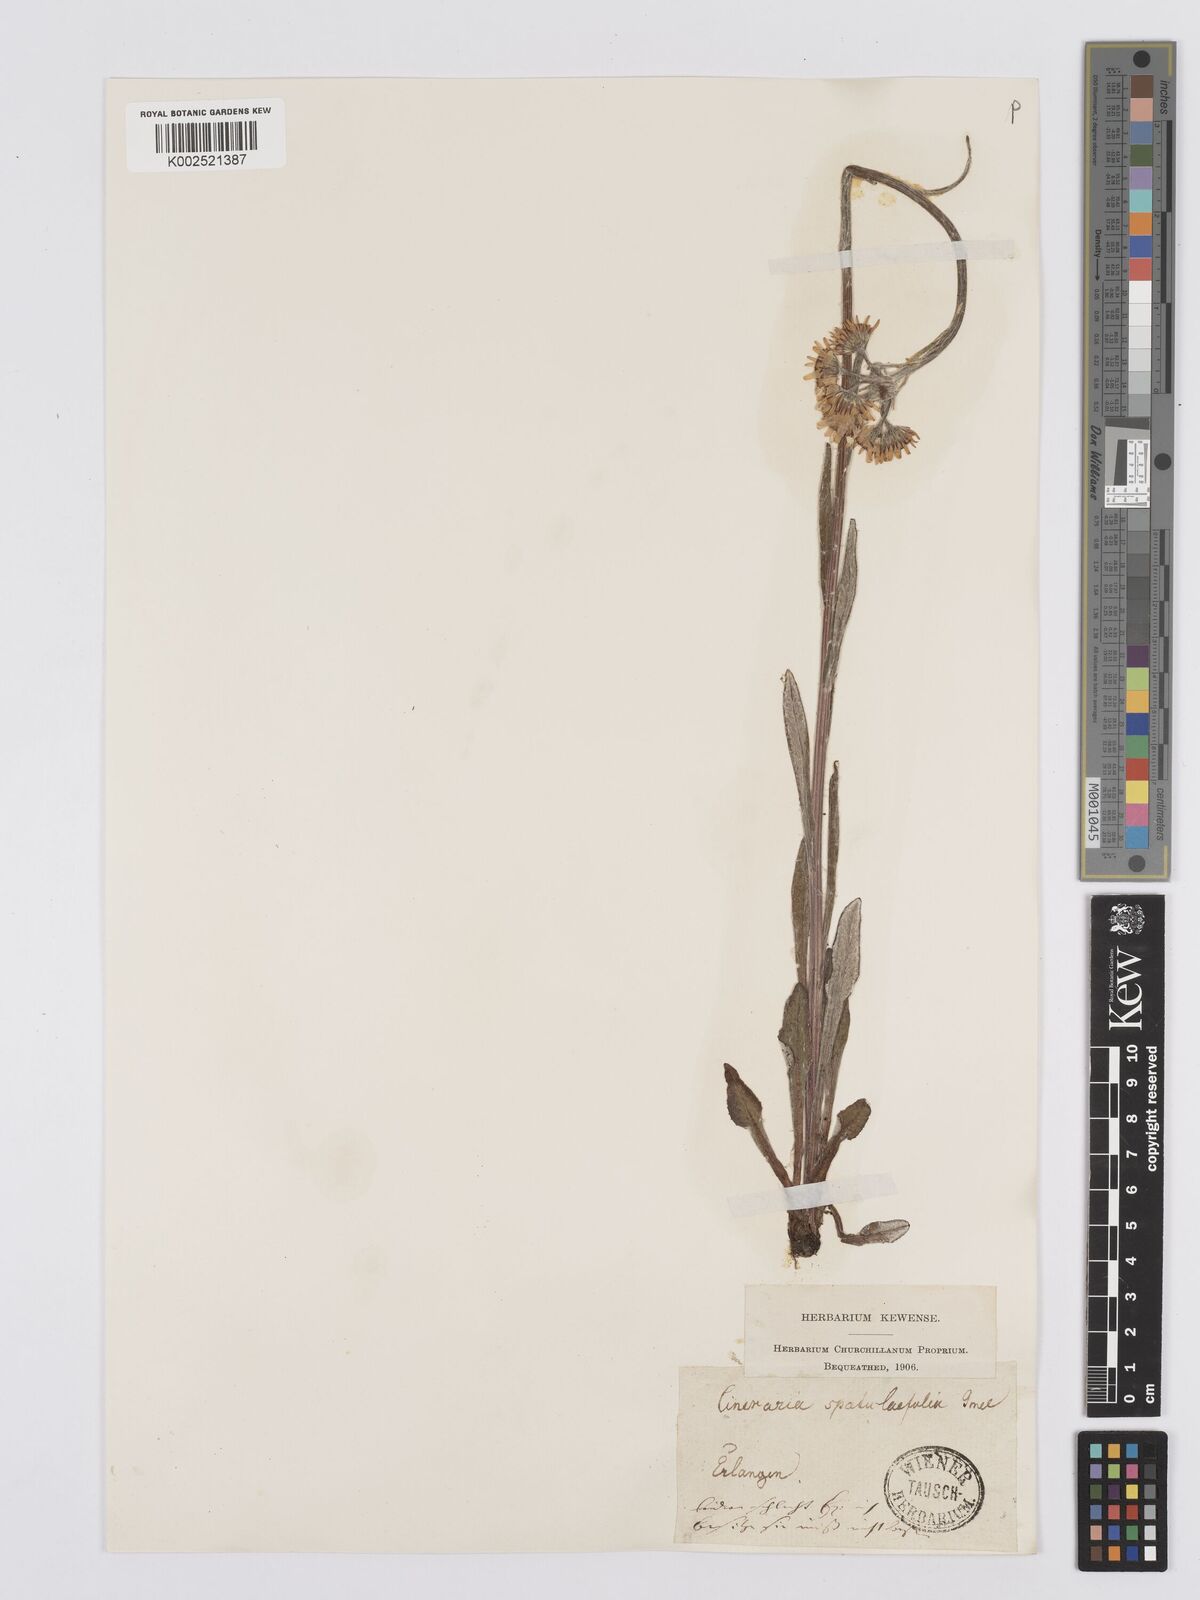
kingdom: Plantae
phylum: Tracheophyta
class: Magnoliopsida
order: Asterales
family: Asteraceae
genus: Tephroseris
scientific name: Tephroseris helenitis
